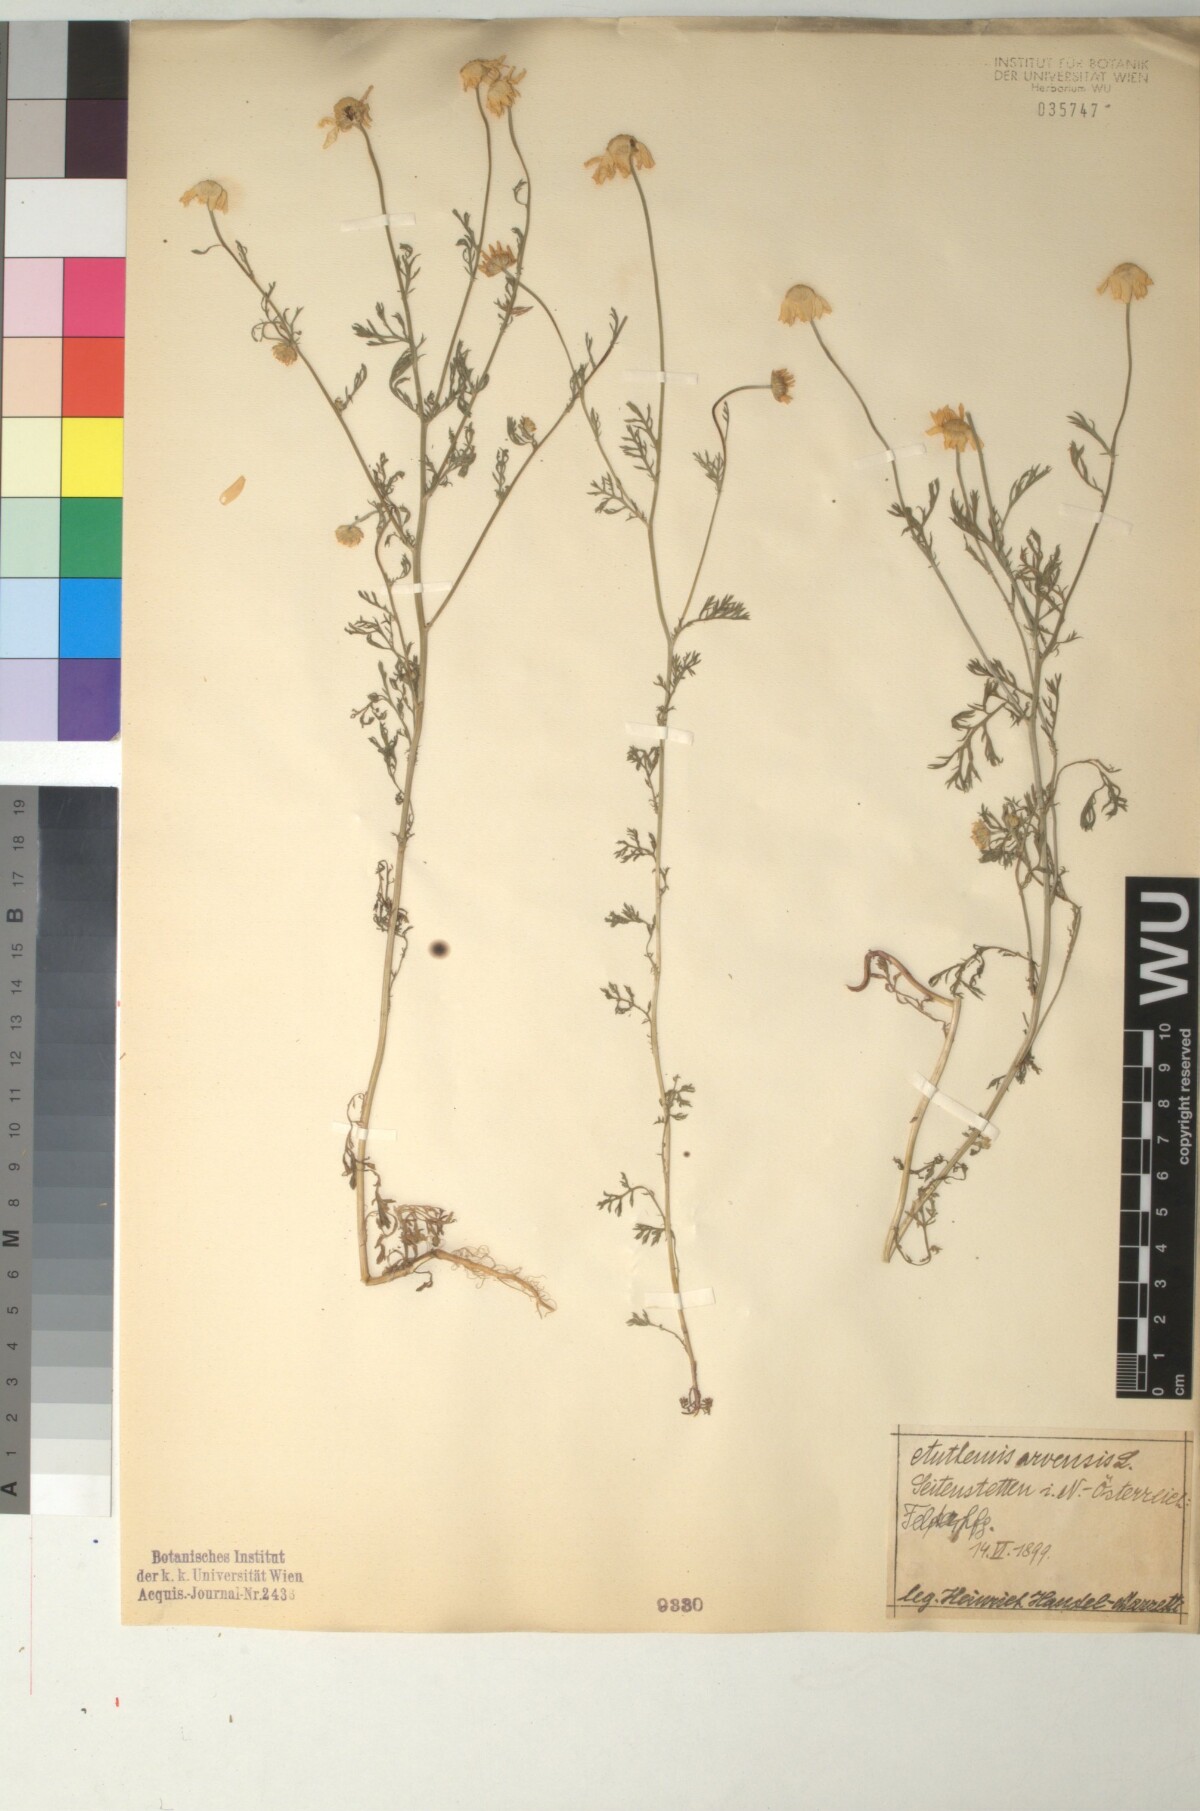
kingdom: Plantae
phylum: Tracheophyta
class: Magnoliopsida
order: Asterales
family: Asteraceae
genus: Anthemis
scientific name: Anthemis arvensis
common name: Corn chamomile
